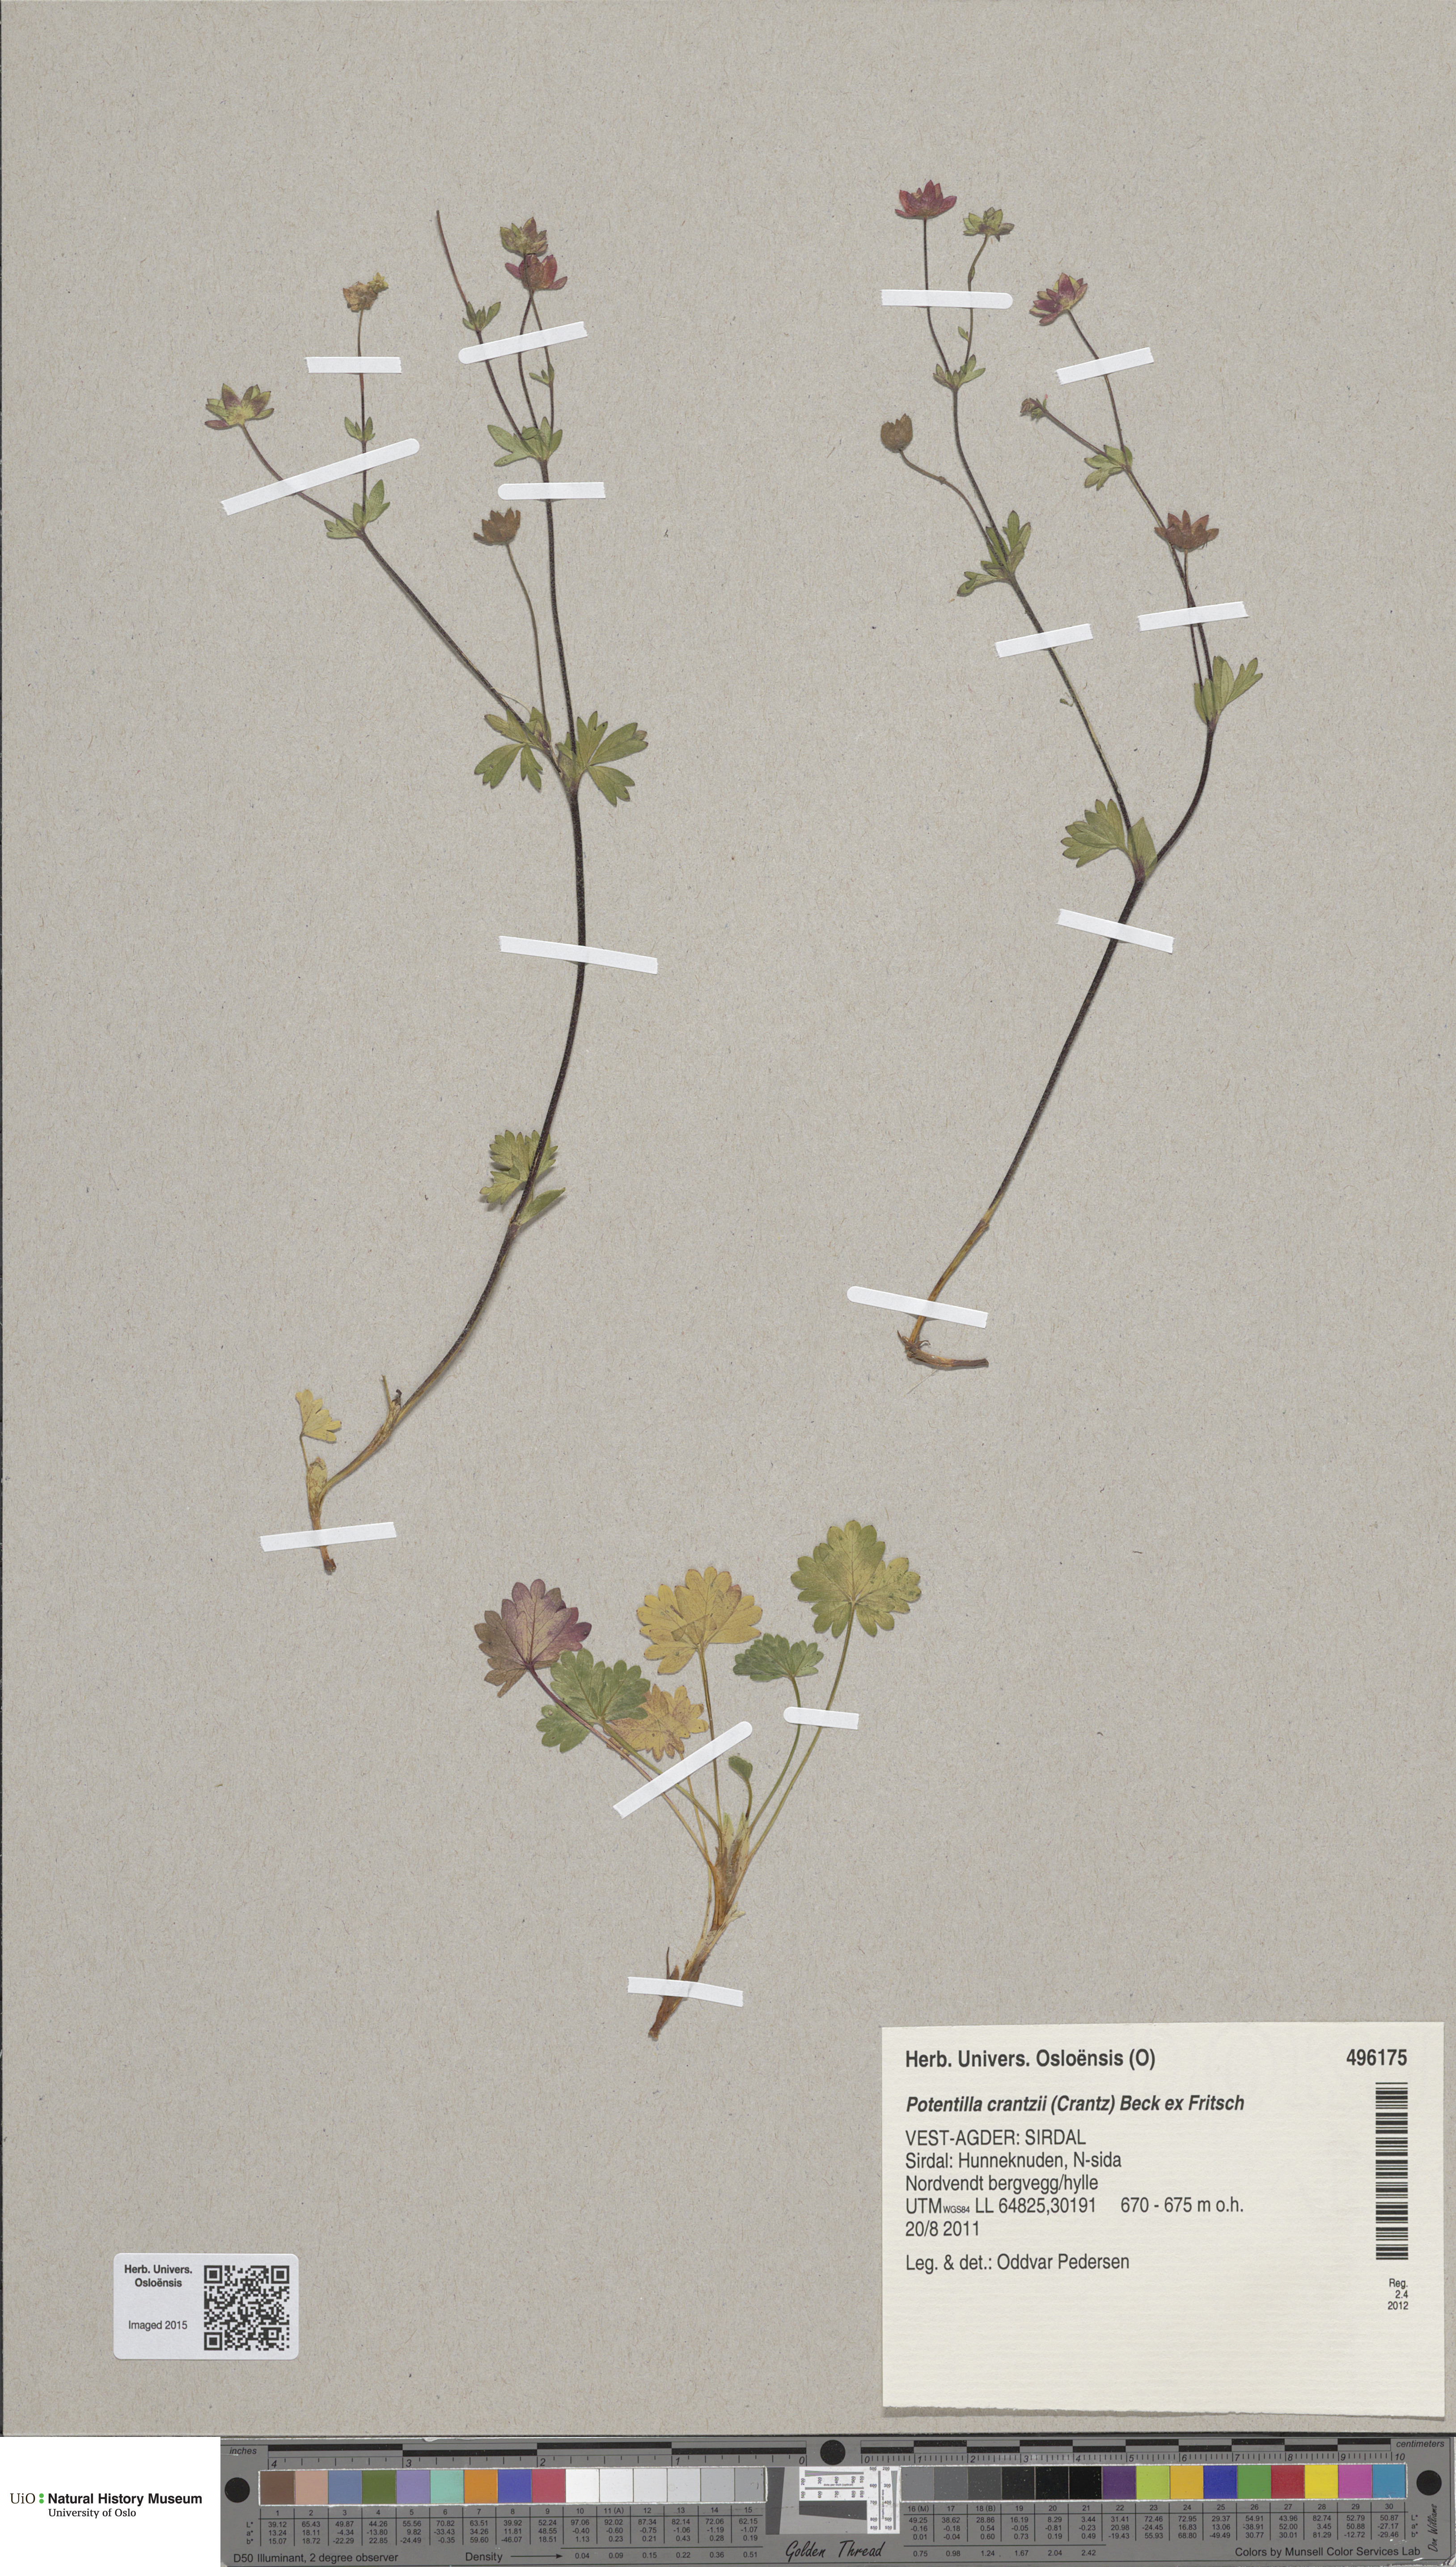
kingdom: Plantae
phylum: Tracheophyta
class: Magnoliopsida
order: Rosales
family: Rosaceae
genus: Potentilla
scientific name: Potentilla crantzii
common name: Alpine cinquefoil
